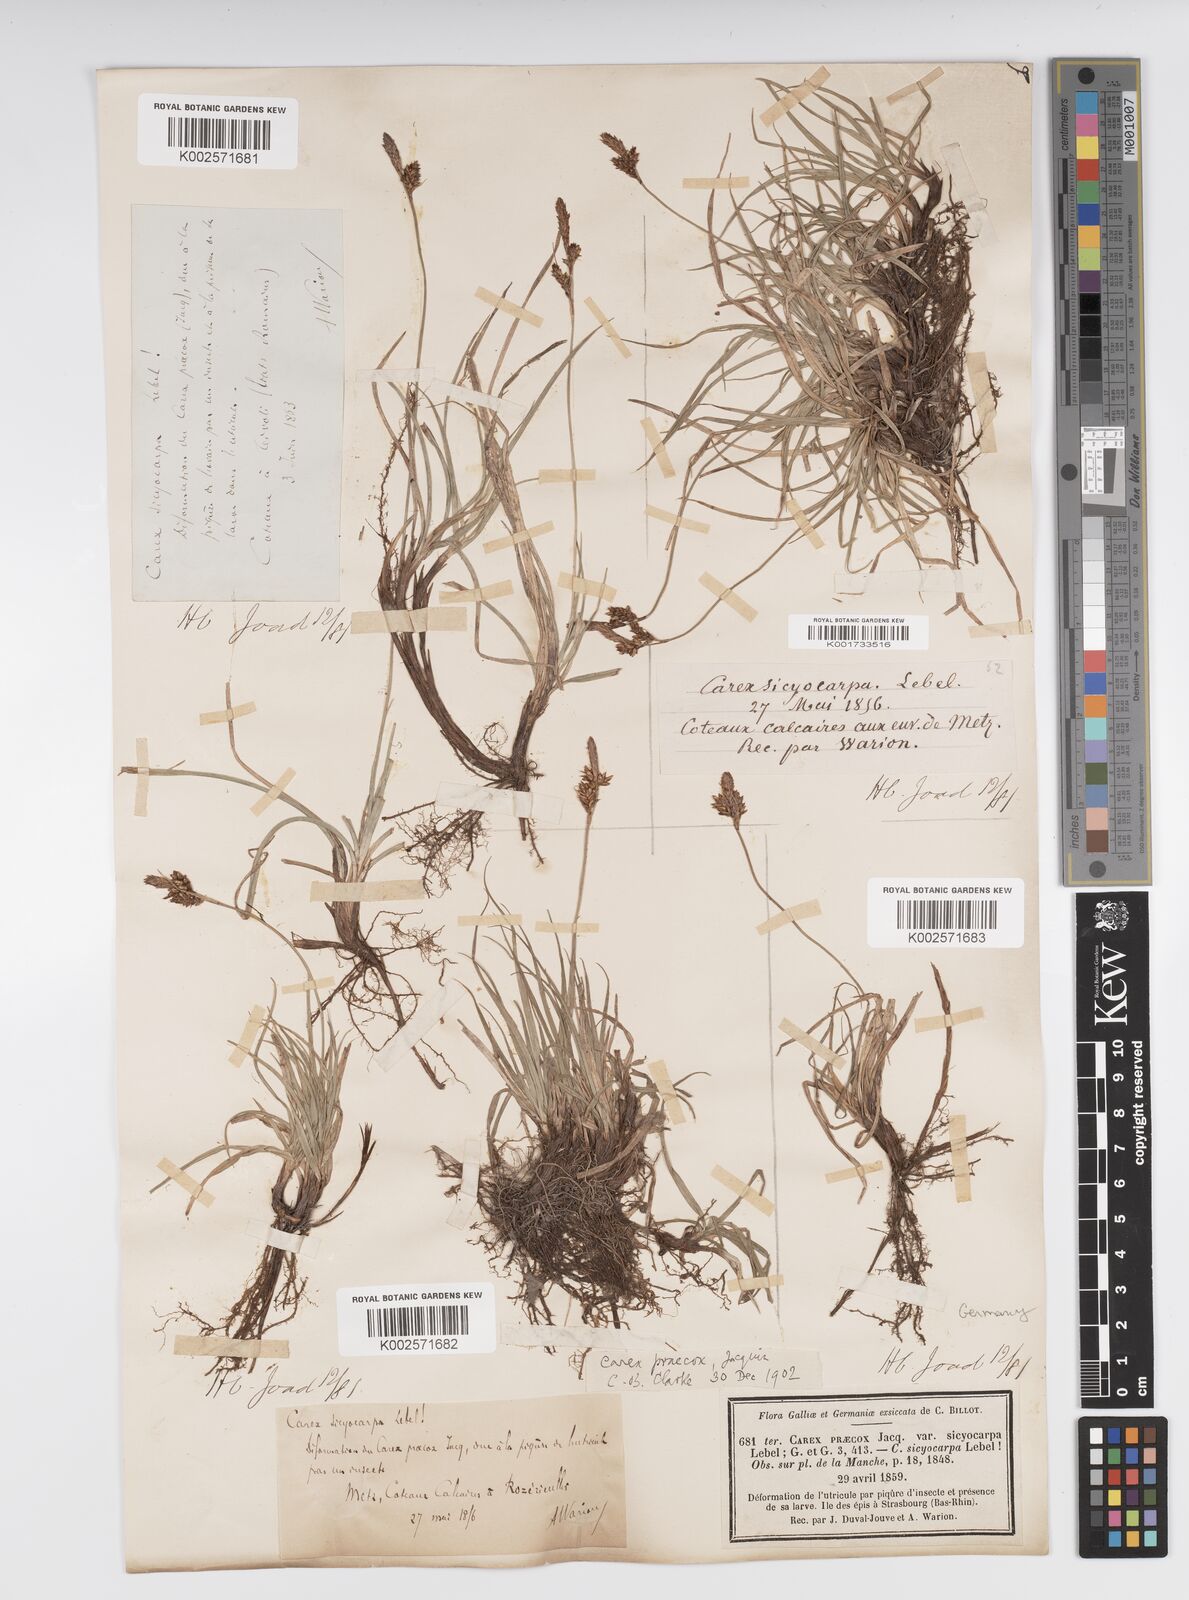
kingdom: Plantae
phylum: Tracheophyta
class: Liliopsida
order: Poales
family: Cyperaceae
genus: Carex
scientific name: Carex caryophyllea
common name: Spring sedge
